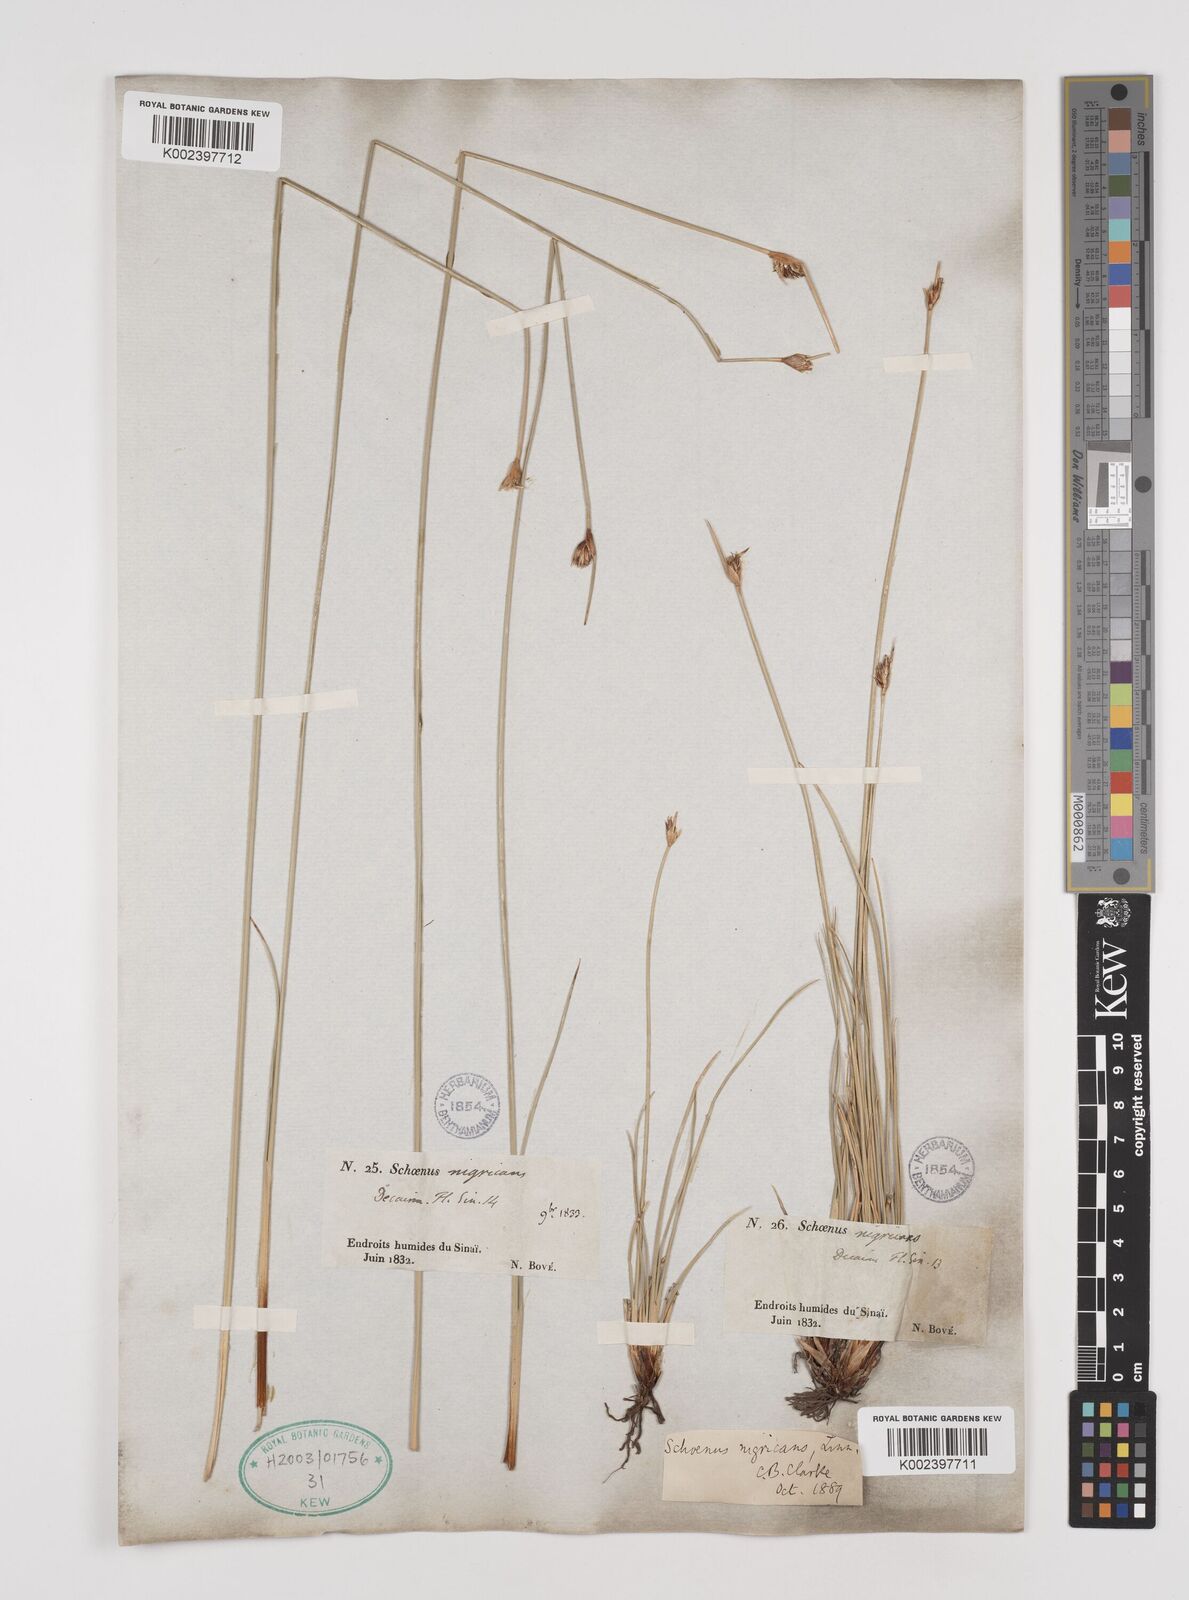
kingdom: Plantae
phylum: Tracheophyta
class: Liliopsida
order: Poales
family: Cyperaceae
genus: Schoenus
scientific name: Schoenus nigricans
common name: Black bog-rush
